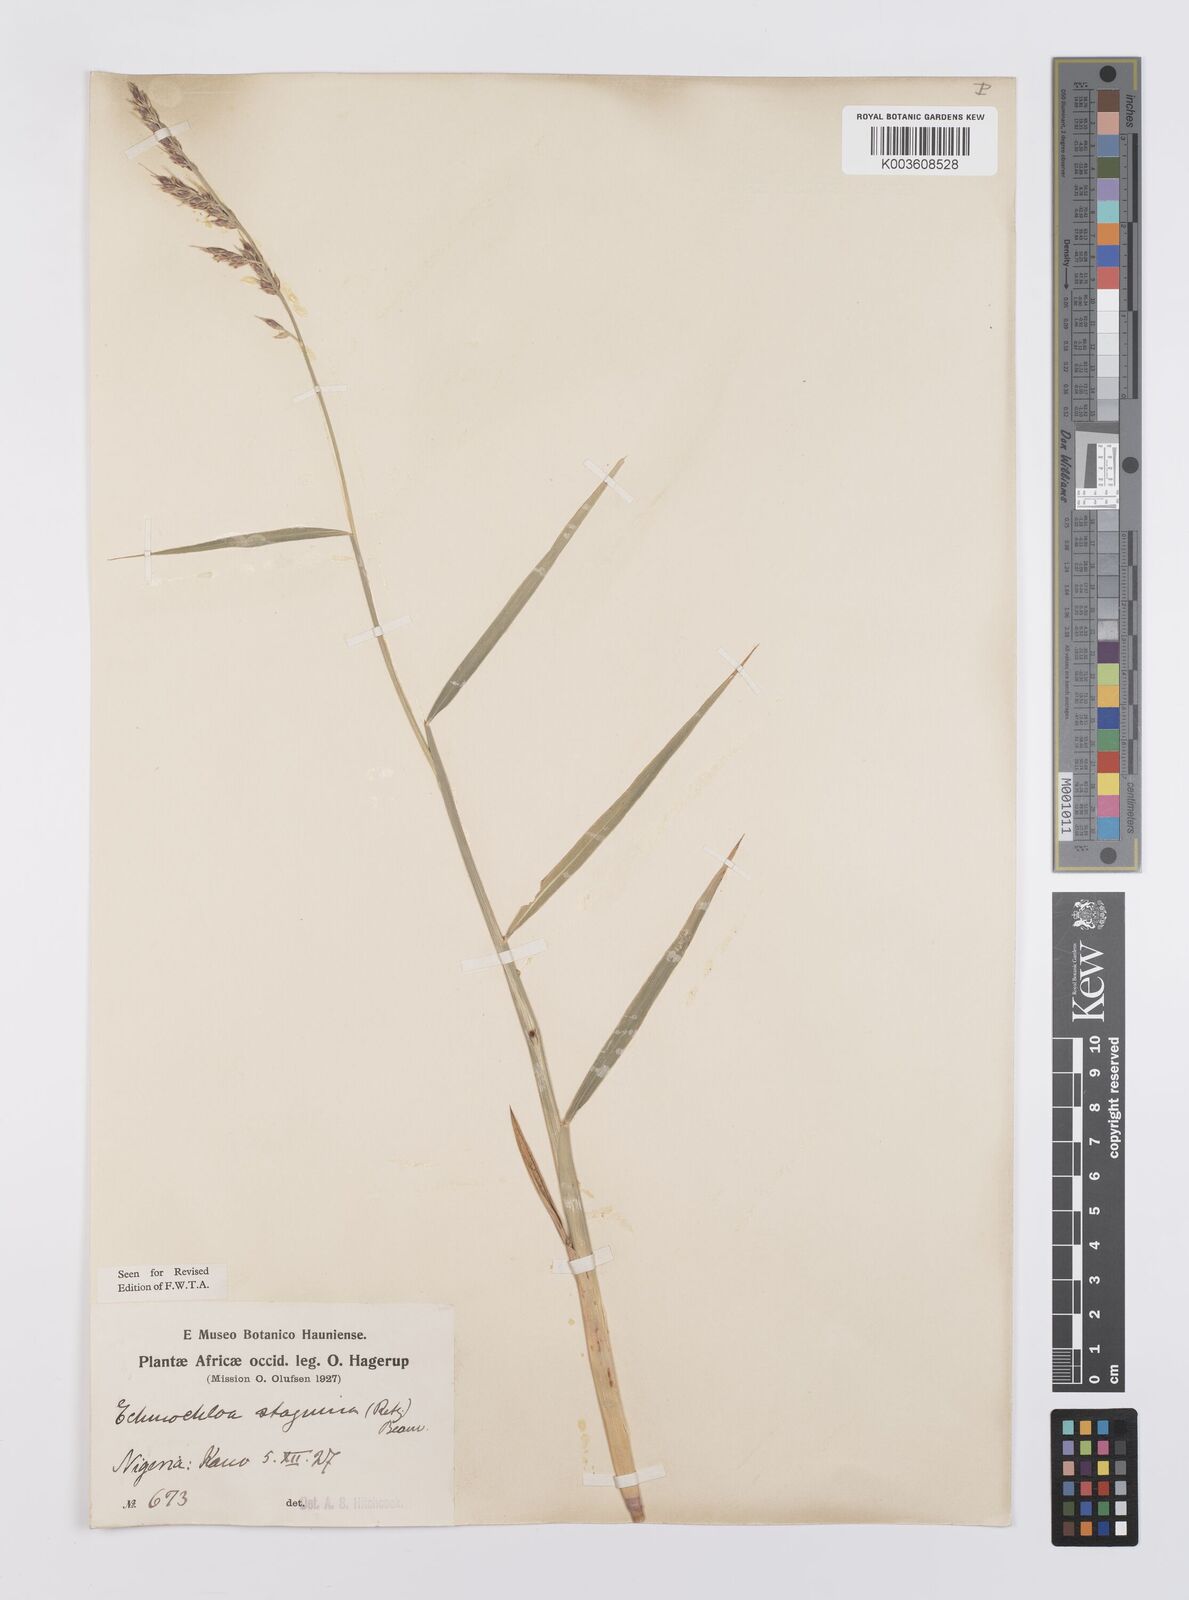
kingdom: Plantae
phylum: Tracheophyta
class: Liliopsida
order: Poales
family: Poaceae
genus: Echinochloa
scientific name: Echinochloa stagnina
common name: Burgu grass
